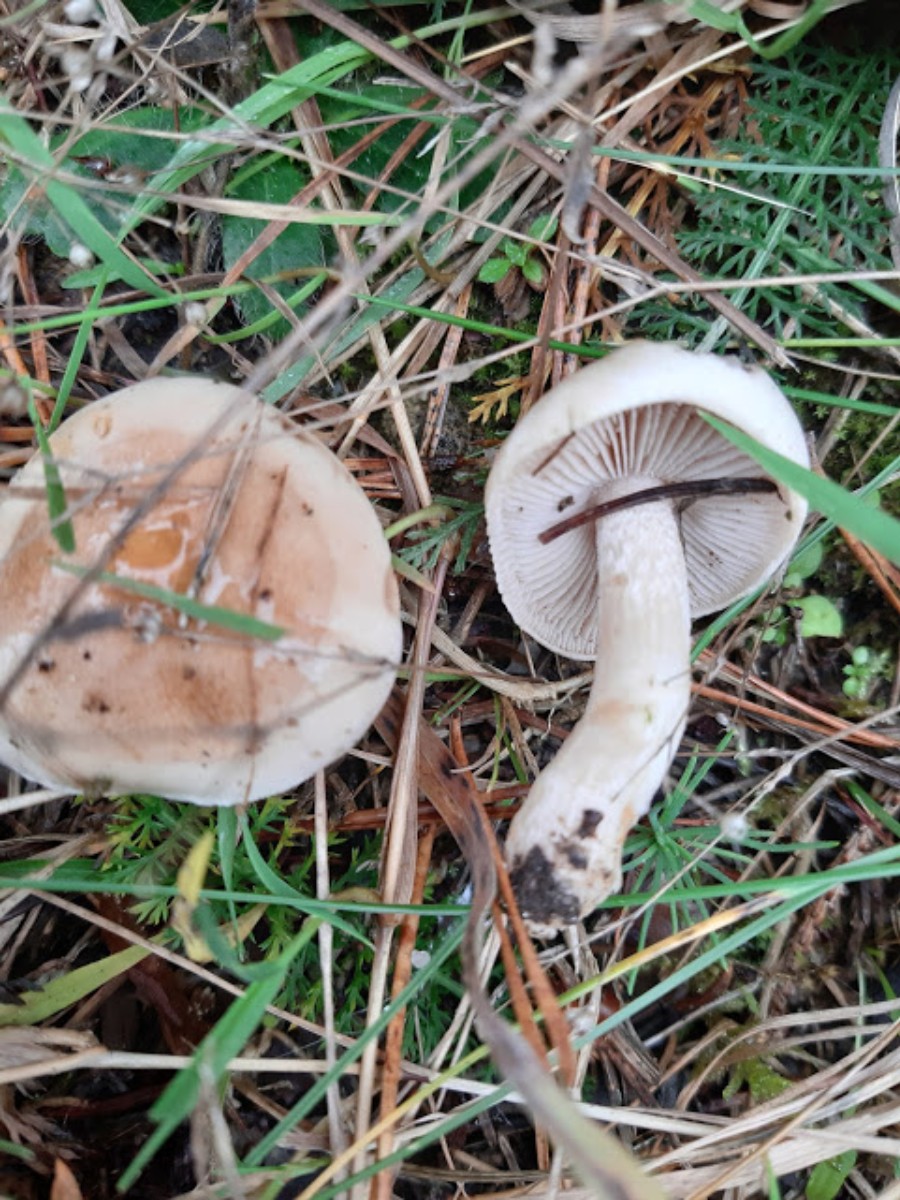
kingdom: Fungi
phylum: Basidiomycota
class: Agaricomycetes
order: Agaricales
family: Hymenogastraceae
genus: Hebeloma
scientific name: Hebeloma
